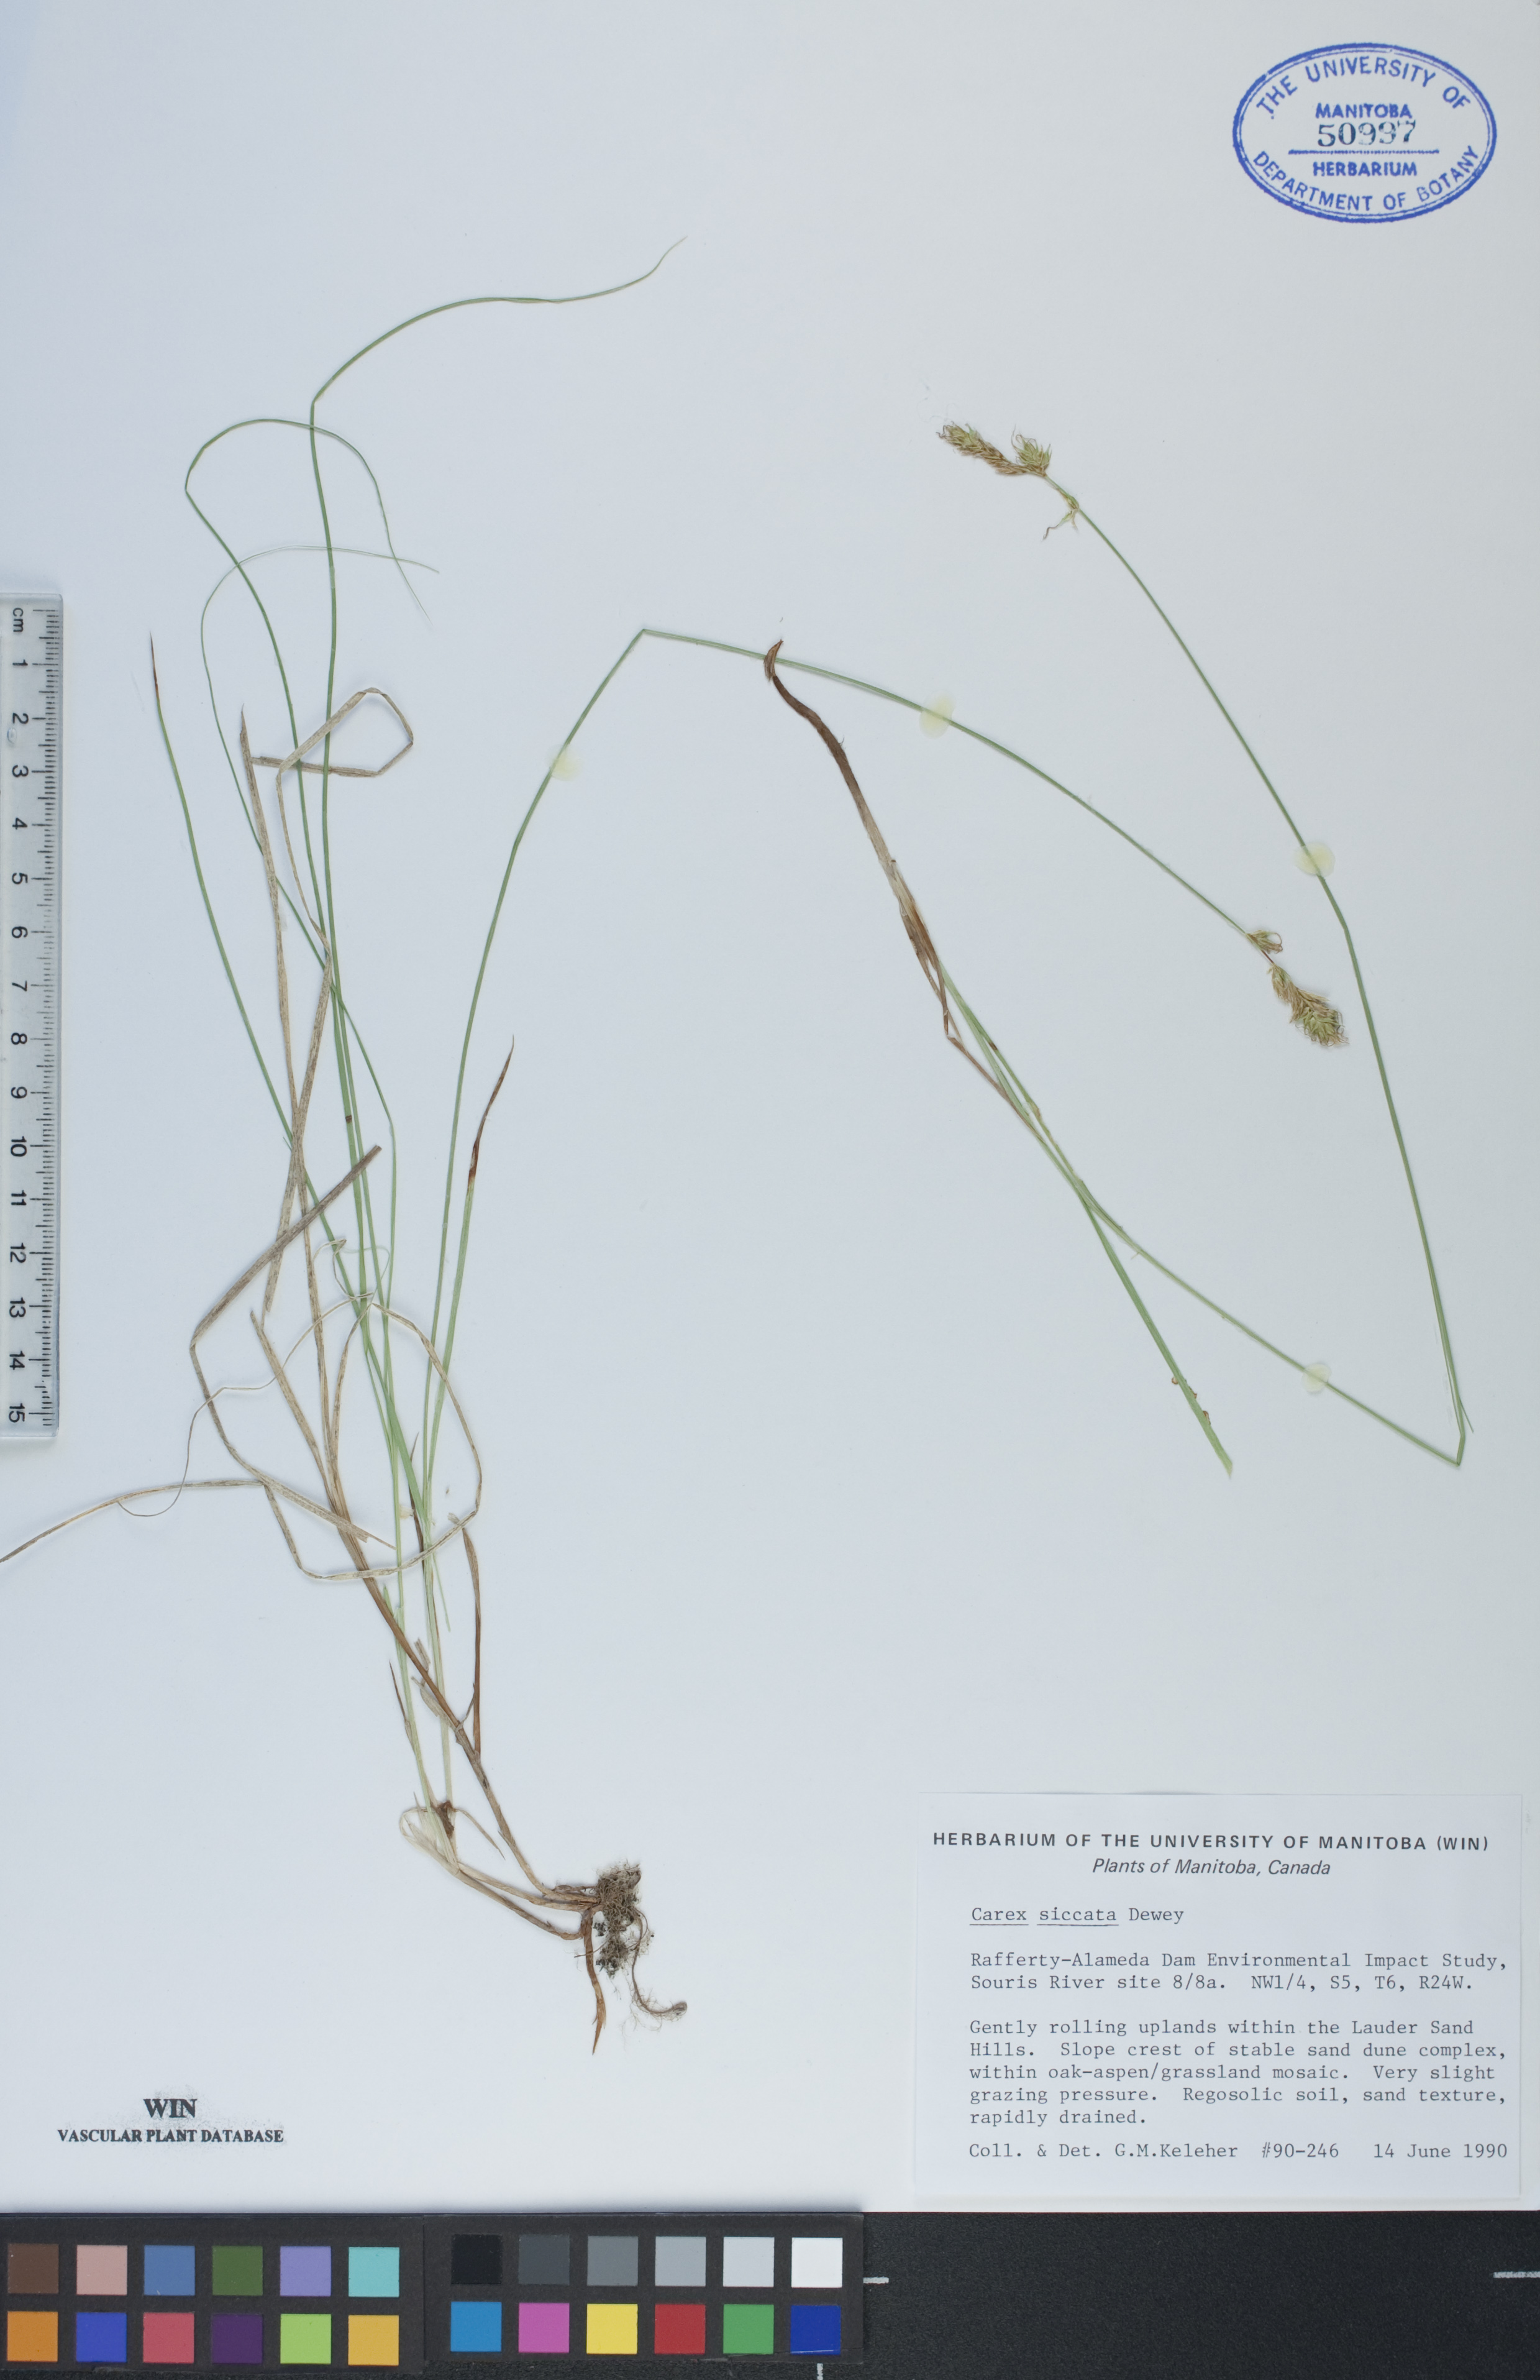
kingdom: Plantae
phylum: Tracheophyta
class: Liliopsida
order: Poales
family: Cyperaceae
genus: Carex
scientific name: Carex siccata
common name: Dry sedge
